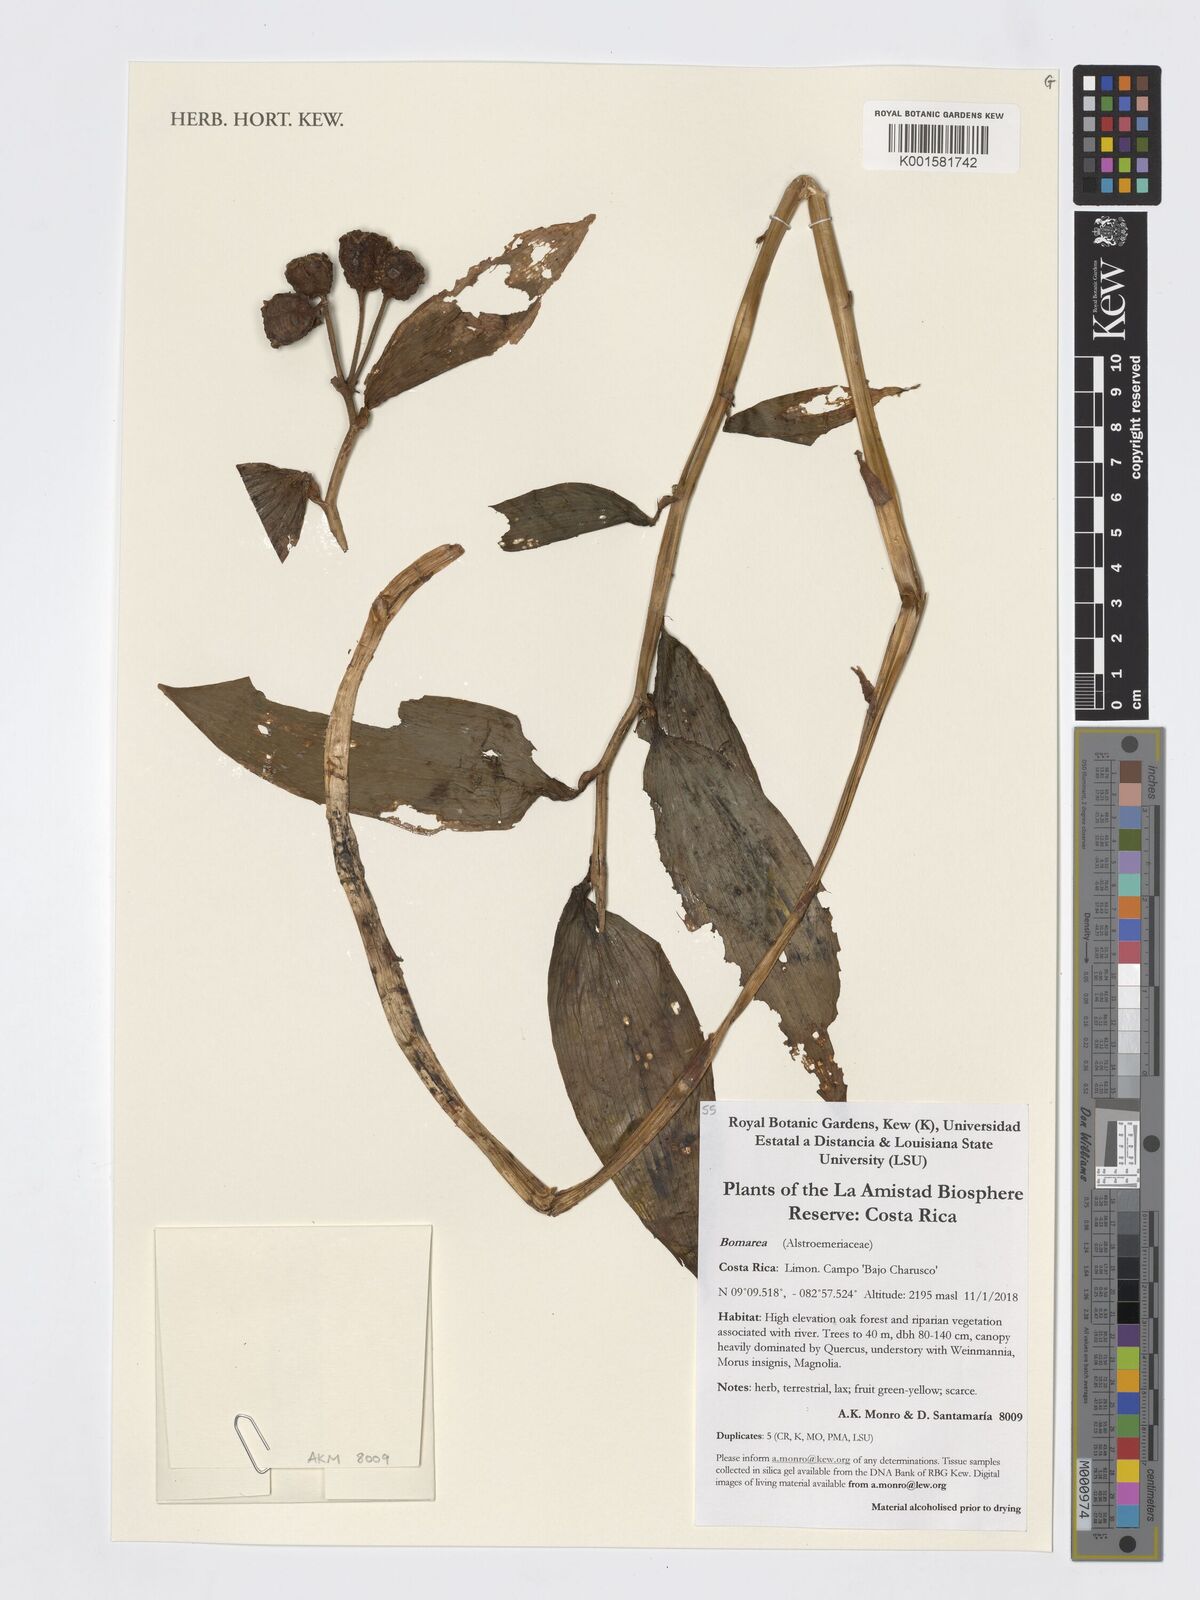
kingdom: Plantae
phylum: Tracheophyta
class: Liliopsida
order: Liliales
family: Alstroemeriaceae
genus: Bomarea
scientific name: Bomarea
